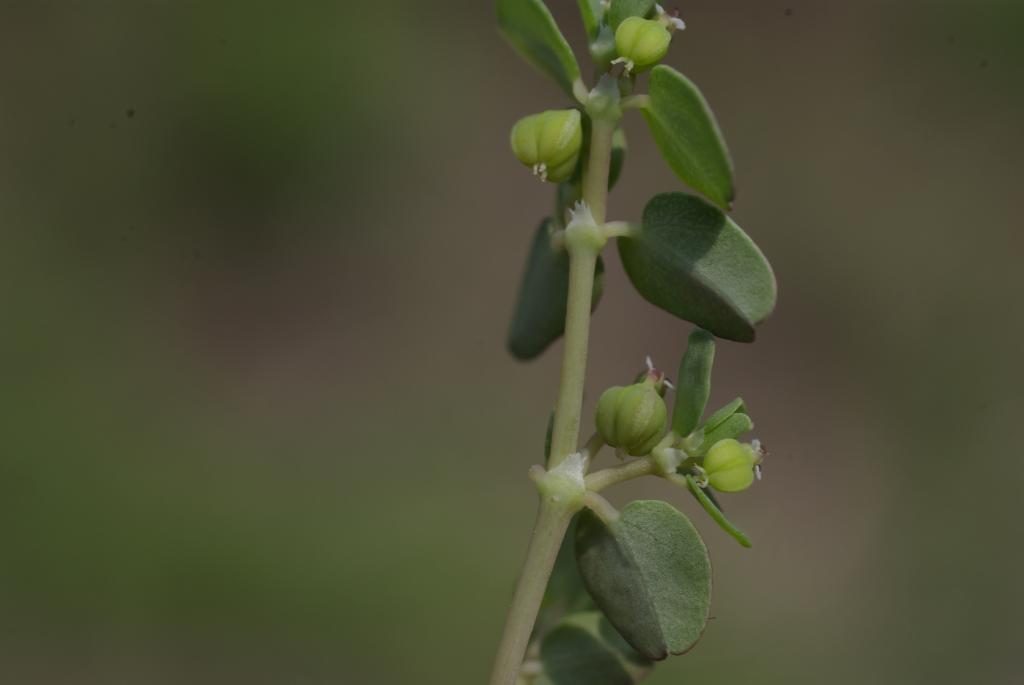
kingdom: Plantae
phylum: Tracheophyta
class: Magnoliopsida
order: Malpighiales
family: Euphorbiaceae
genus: Euphorbia
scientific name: Euphorbia serpens
